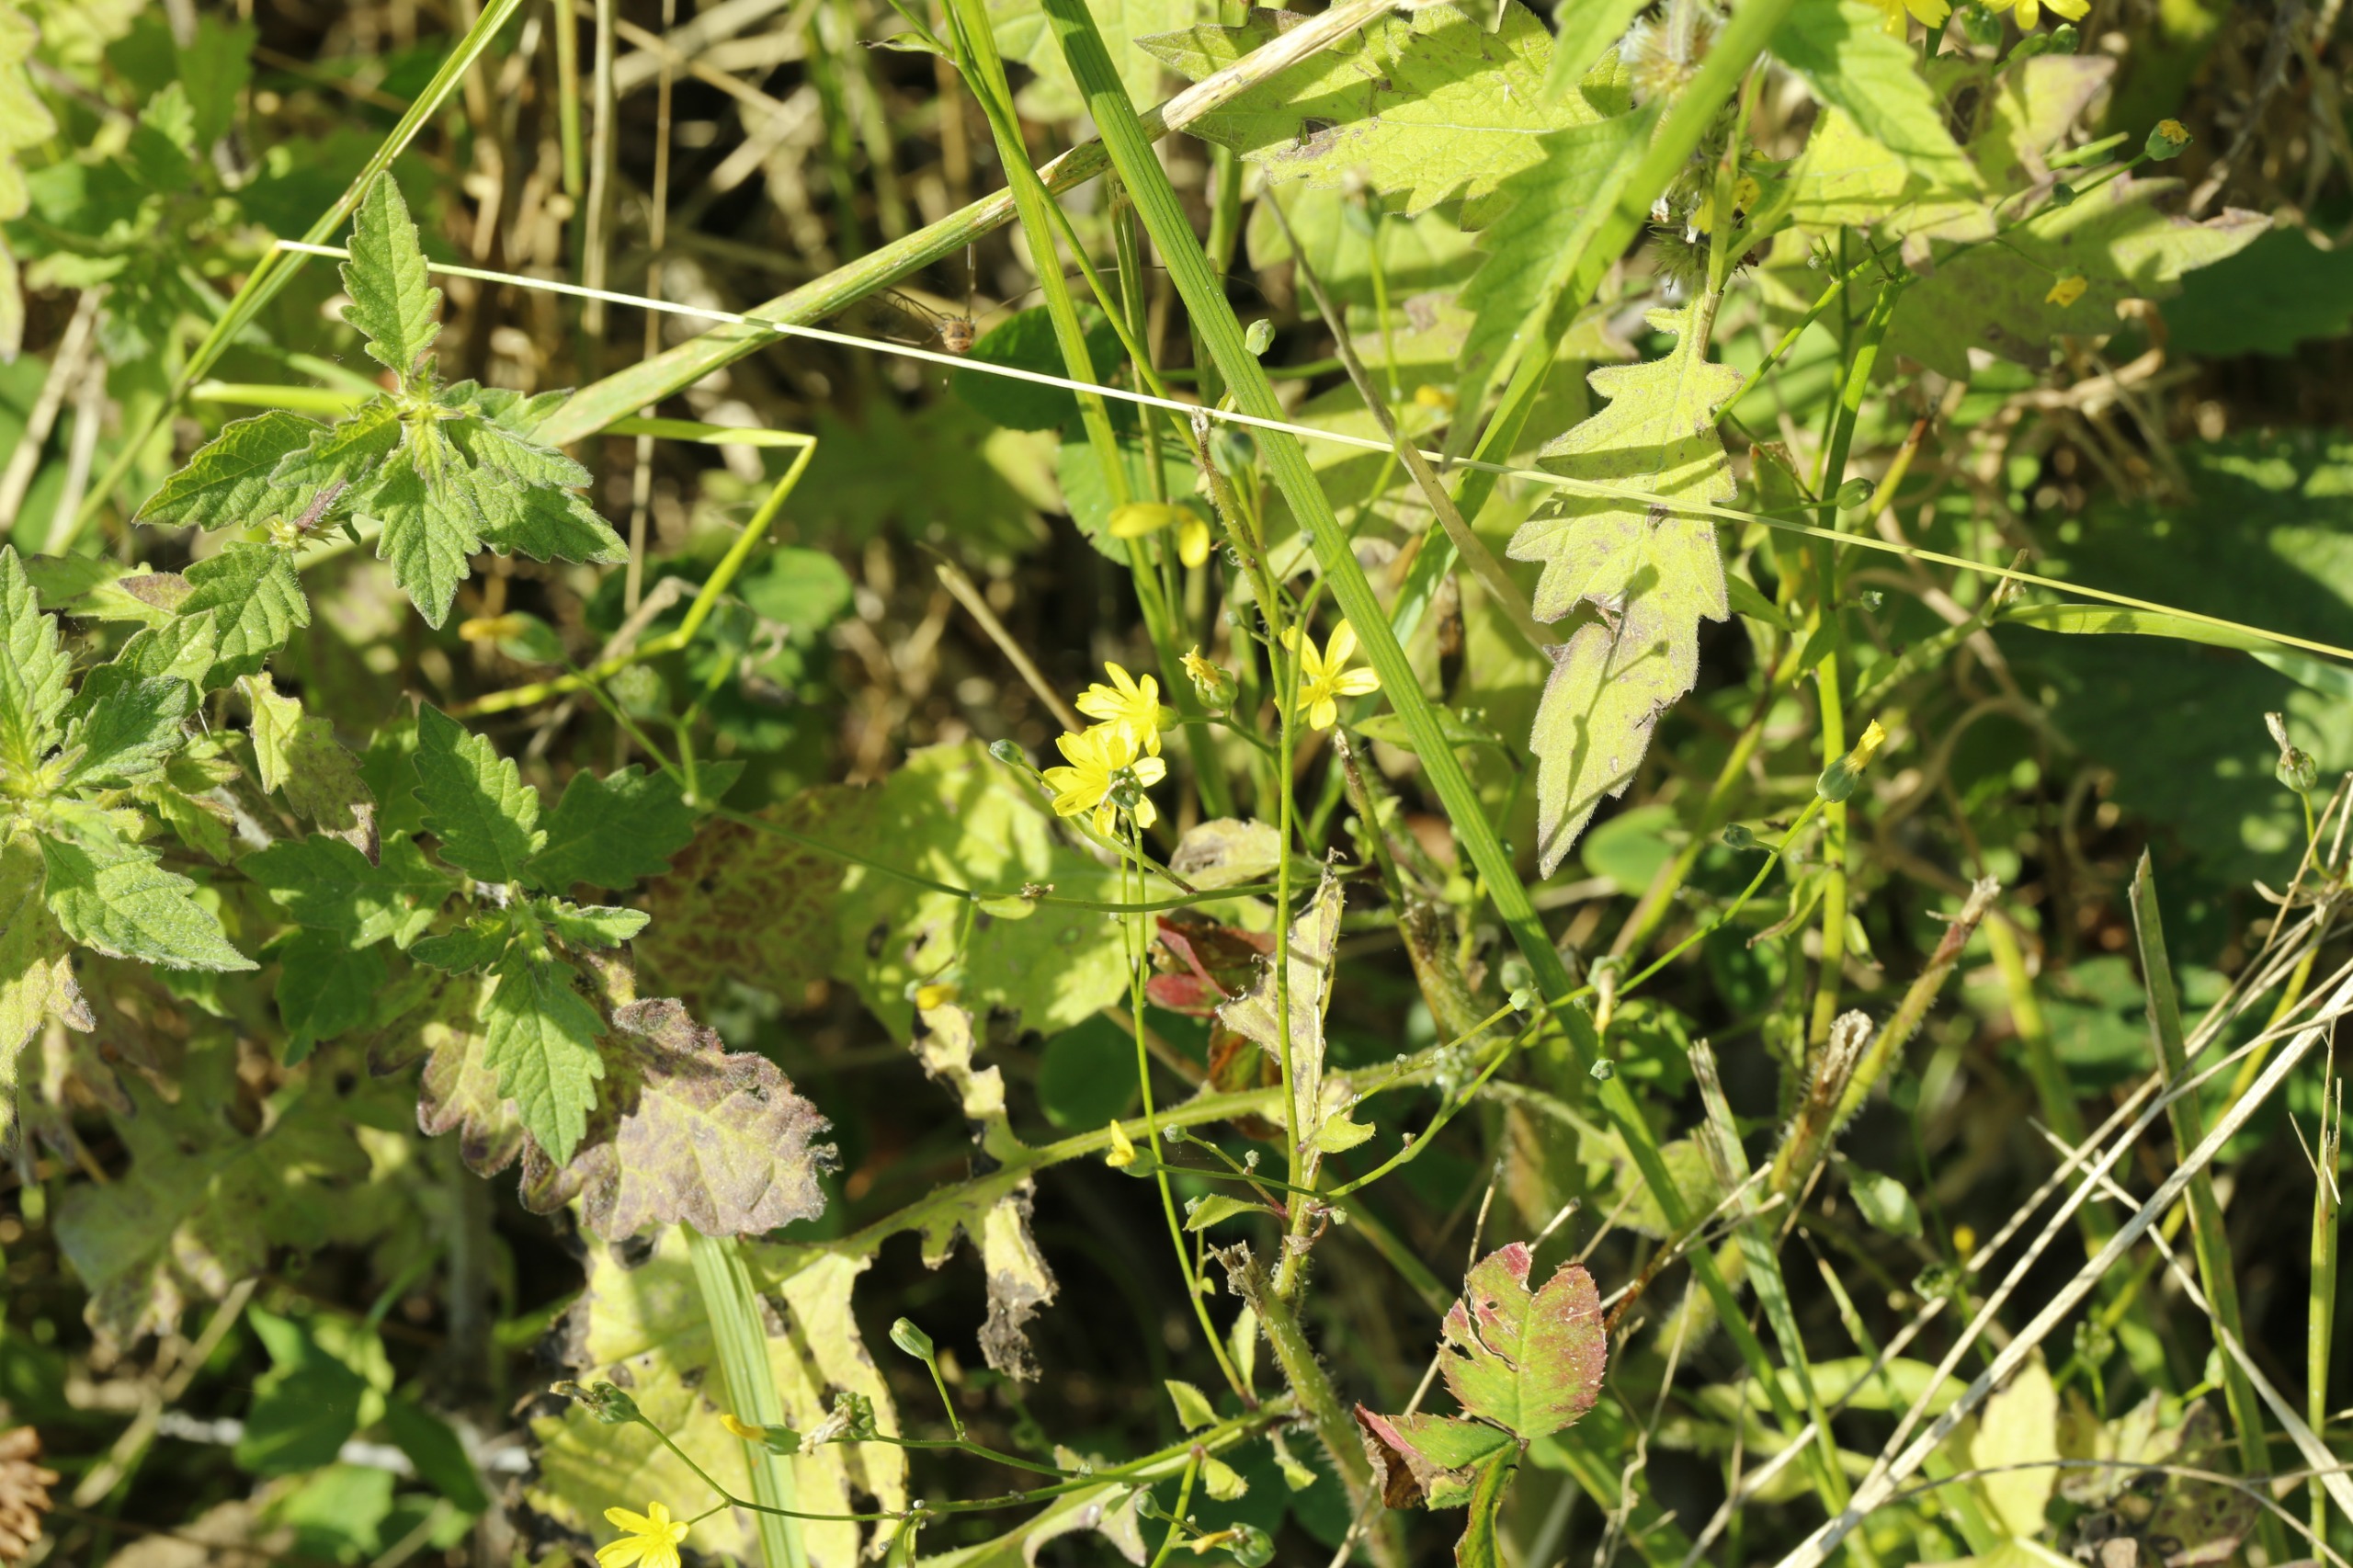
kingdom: Plantae
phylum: Tracheophyta
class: Magnoliopsida
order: Asterales
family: Asteraceae
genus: Lapsana
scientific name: Lapsana communis
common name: Haremad
